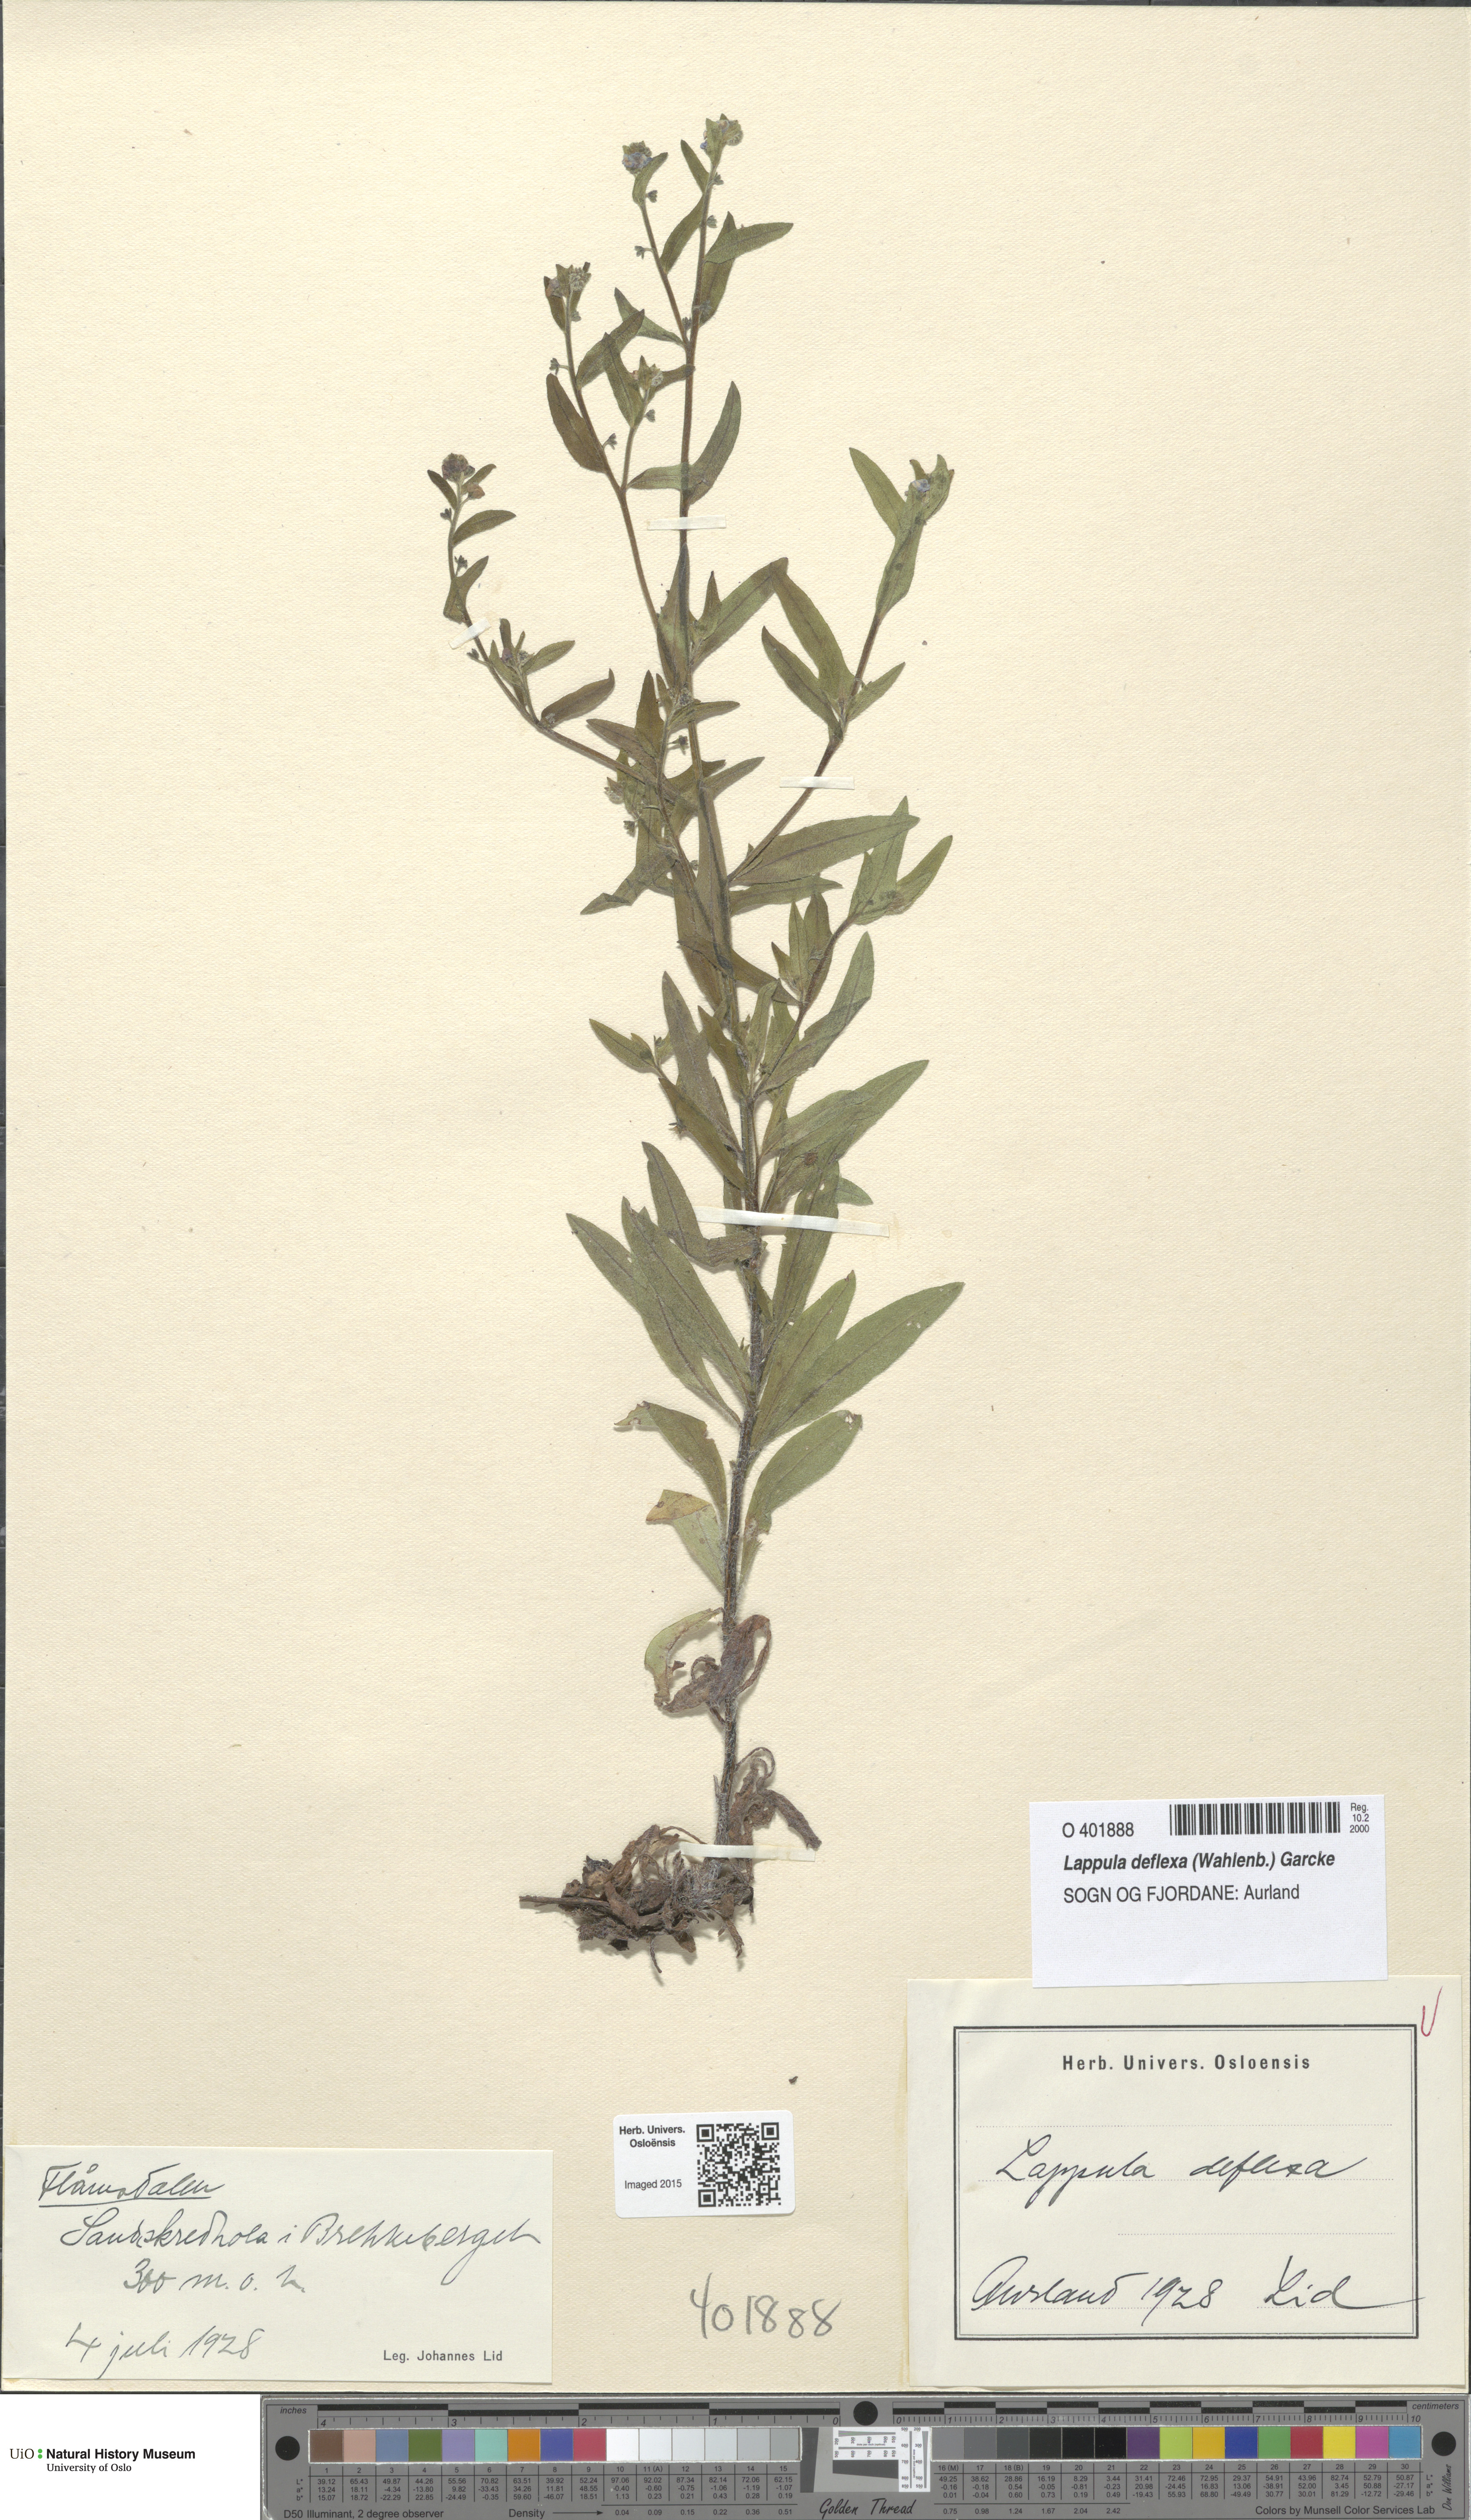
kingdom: Plantae
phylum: Tracheophyta
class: Magnoliopsida
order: Boraginales
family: Boraginaceae
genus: Hackelia
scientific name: Hackelia deflexa
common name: Nodding stickseed
